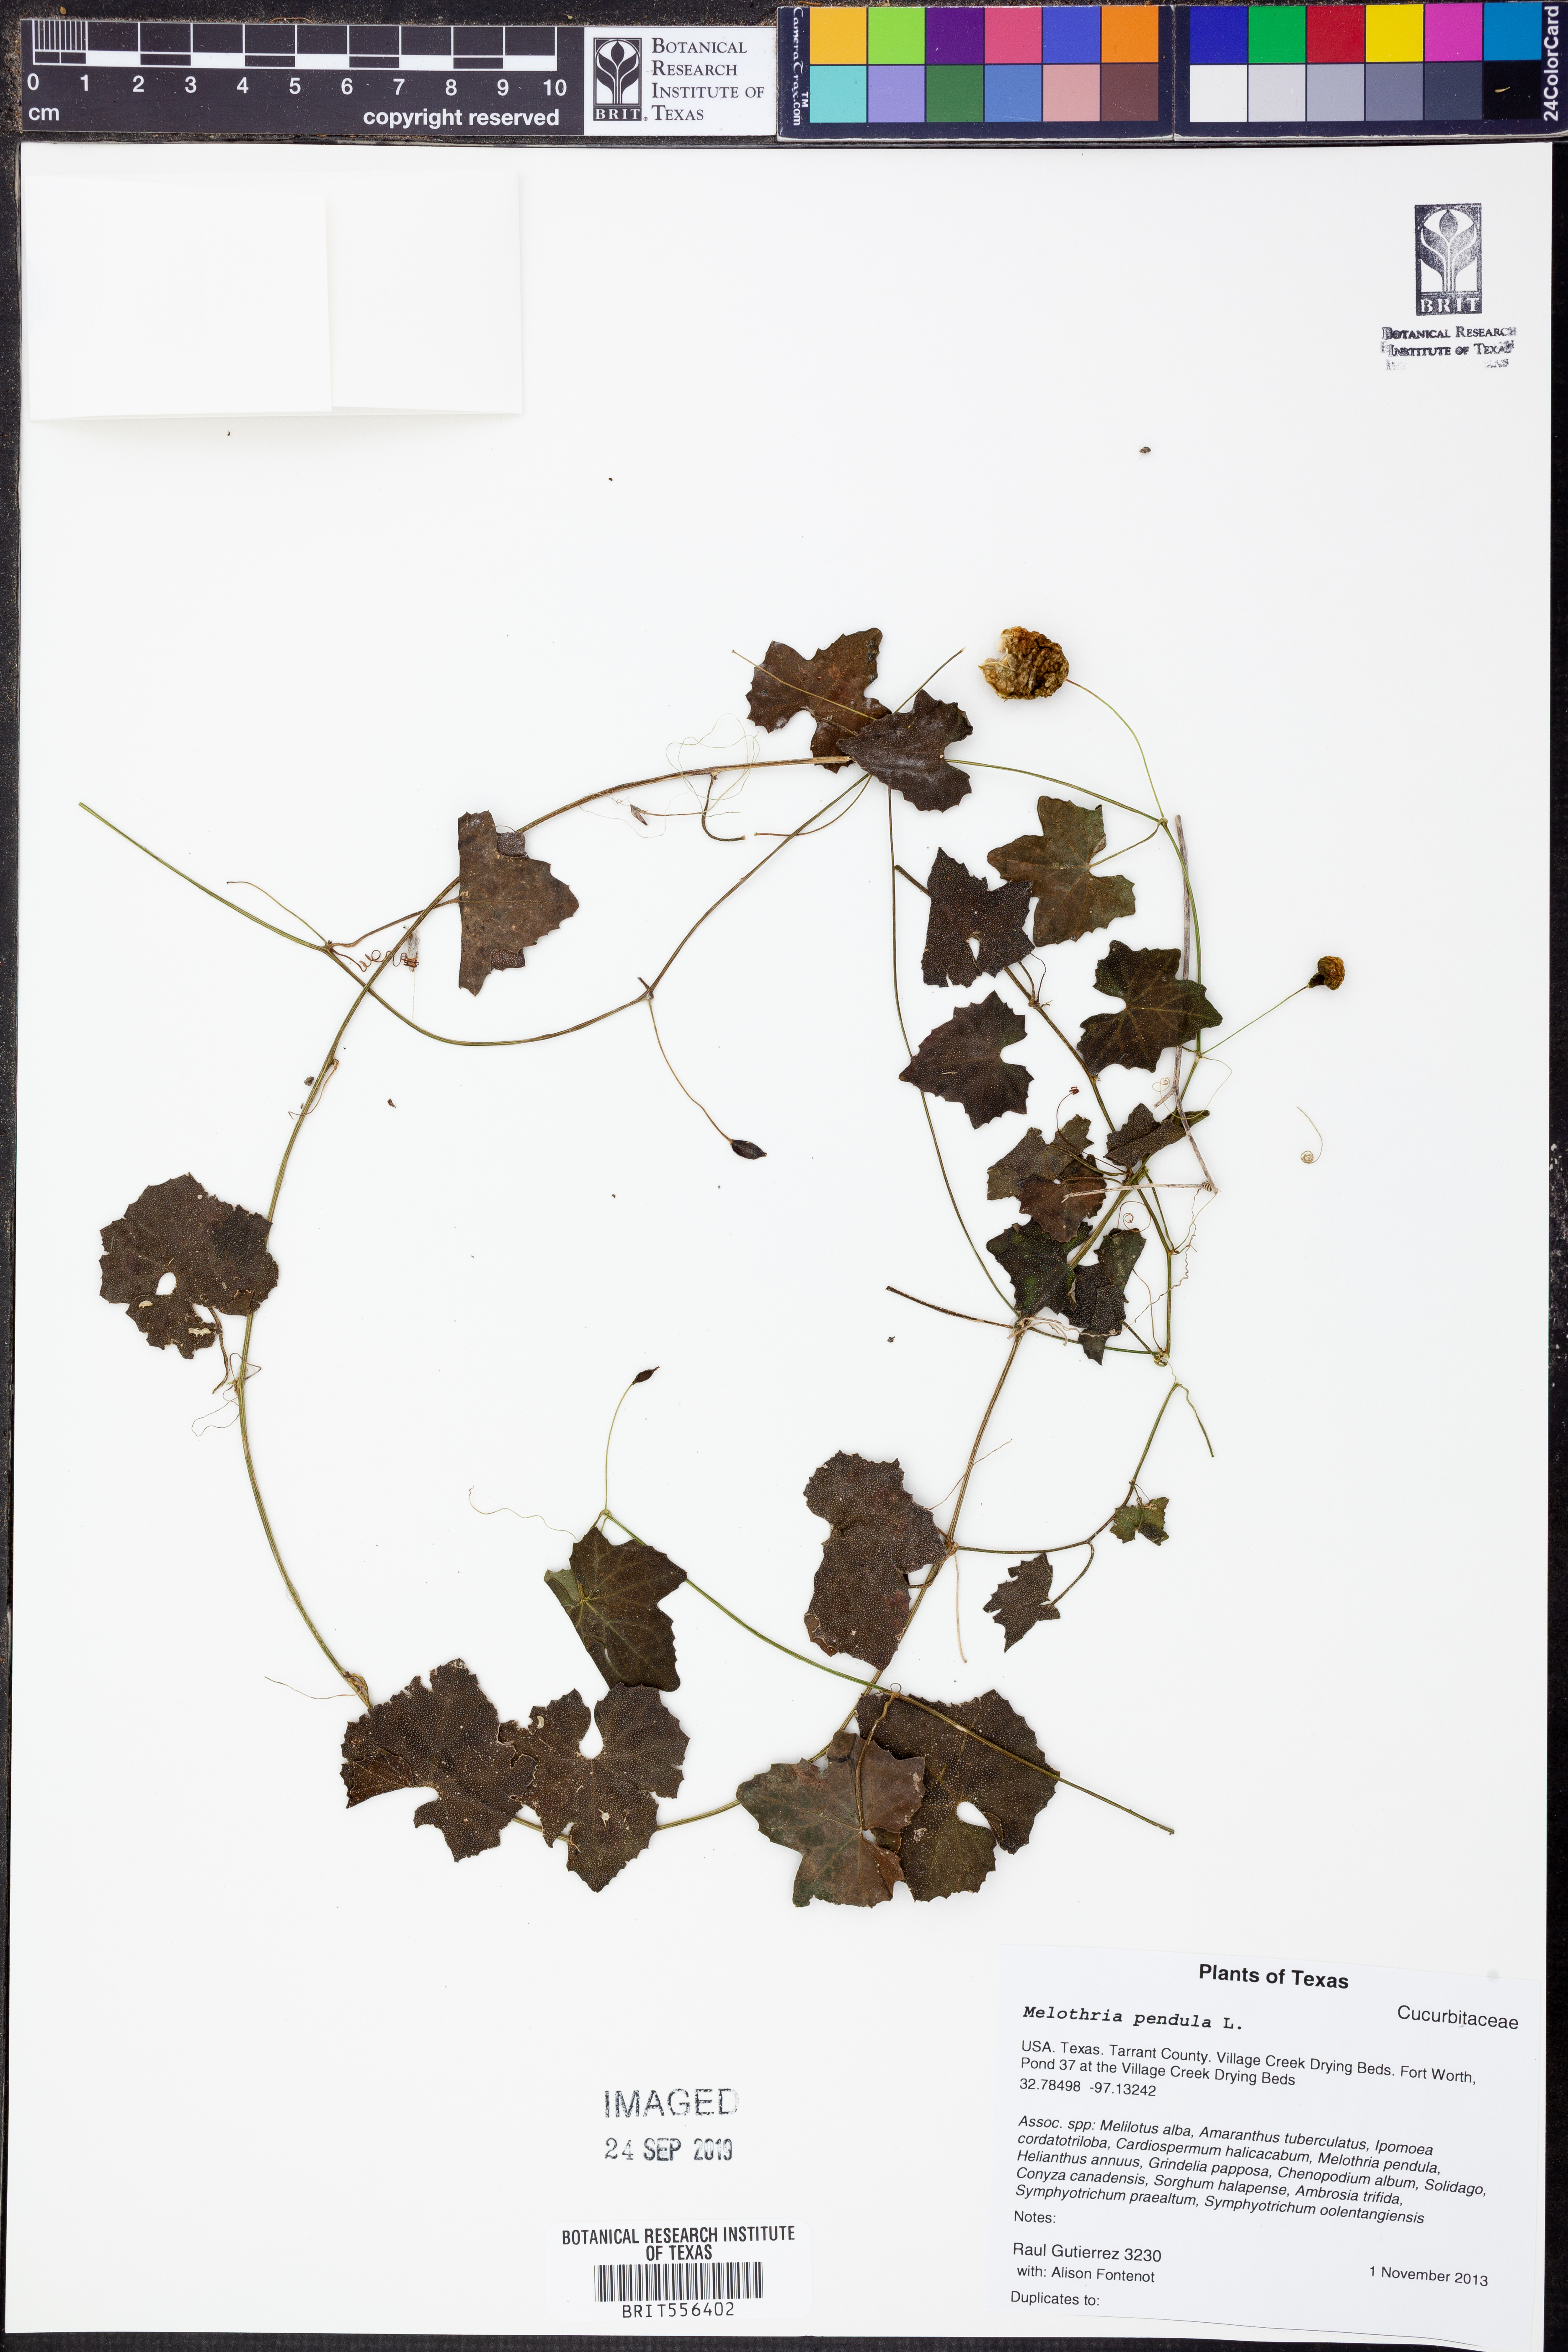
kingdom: Plantae
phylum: Tracheophyta
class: Magnoliopsida
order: Cucurbitales
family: Cucurbitaceae
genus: Melothria
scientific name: Melothria pendula
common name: Creeping-cucumber
